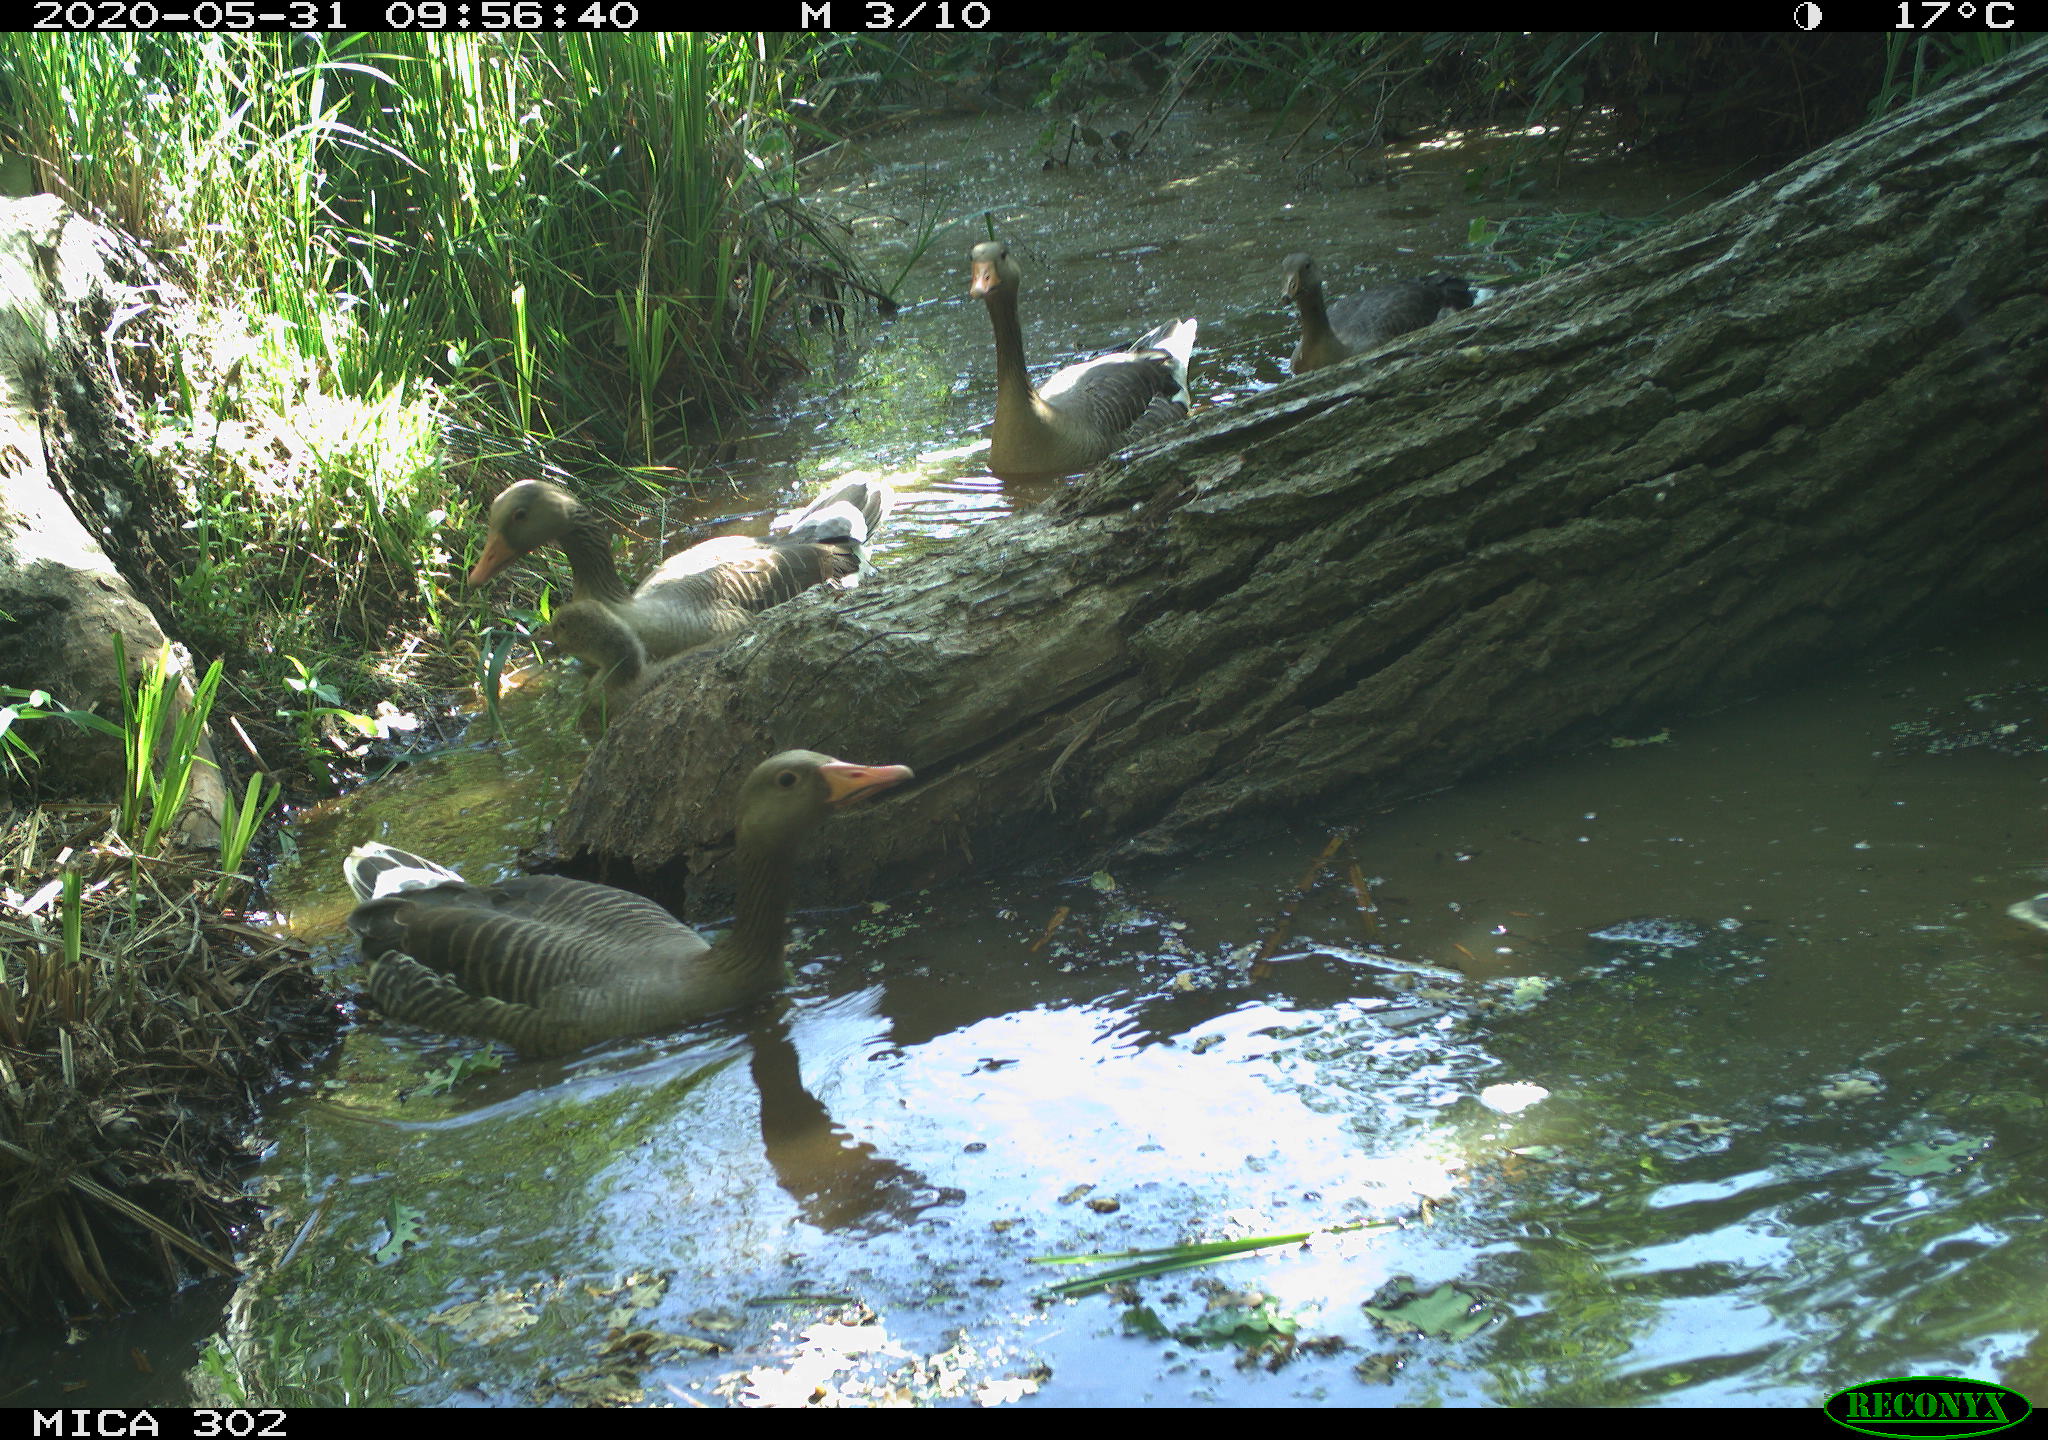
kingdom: Animalia
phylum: Chordata
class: Aves
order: Anseriformes
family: Anatidae
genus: Anser
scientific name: Anser anser
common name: Greylag goose
